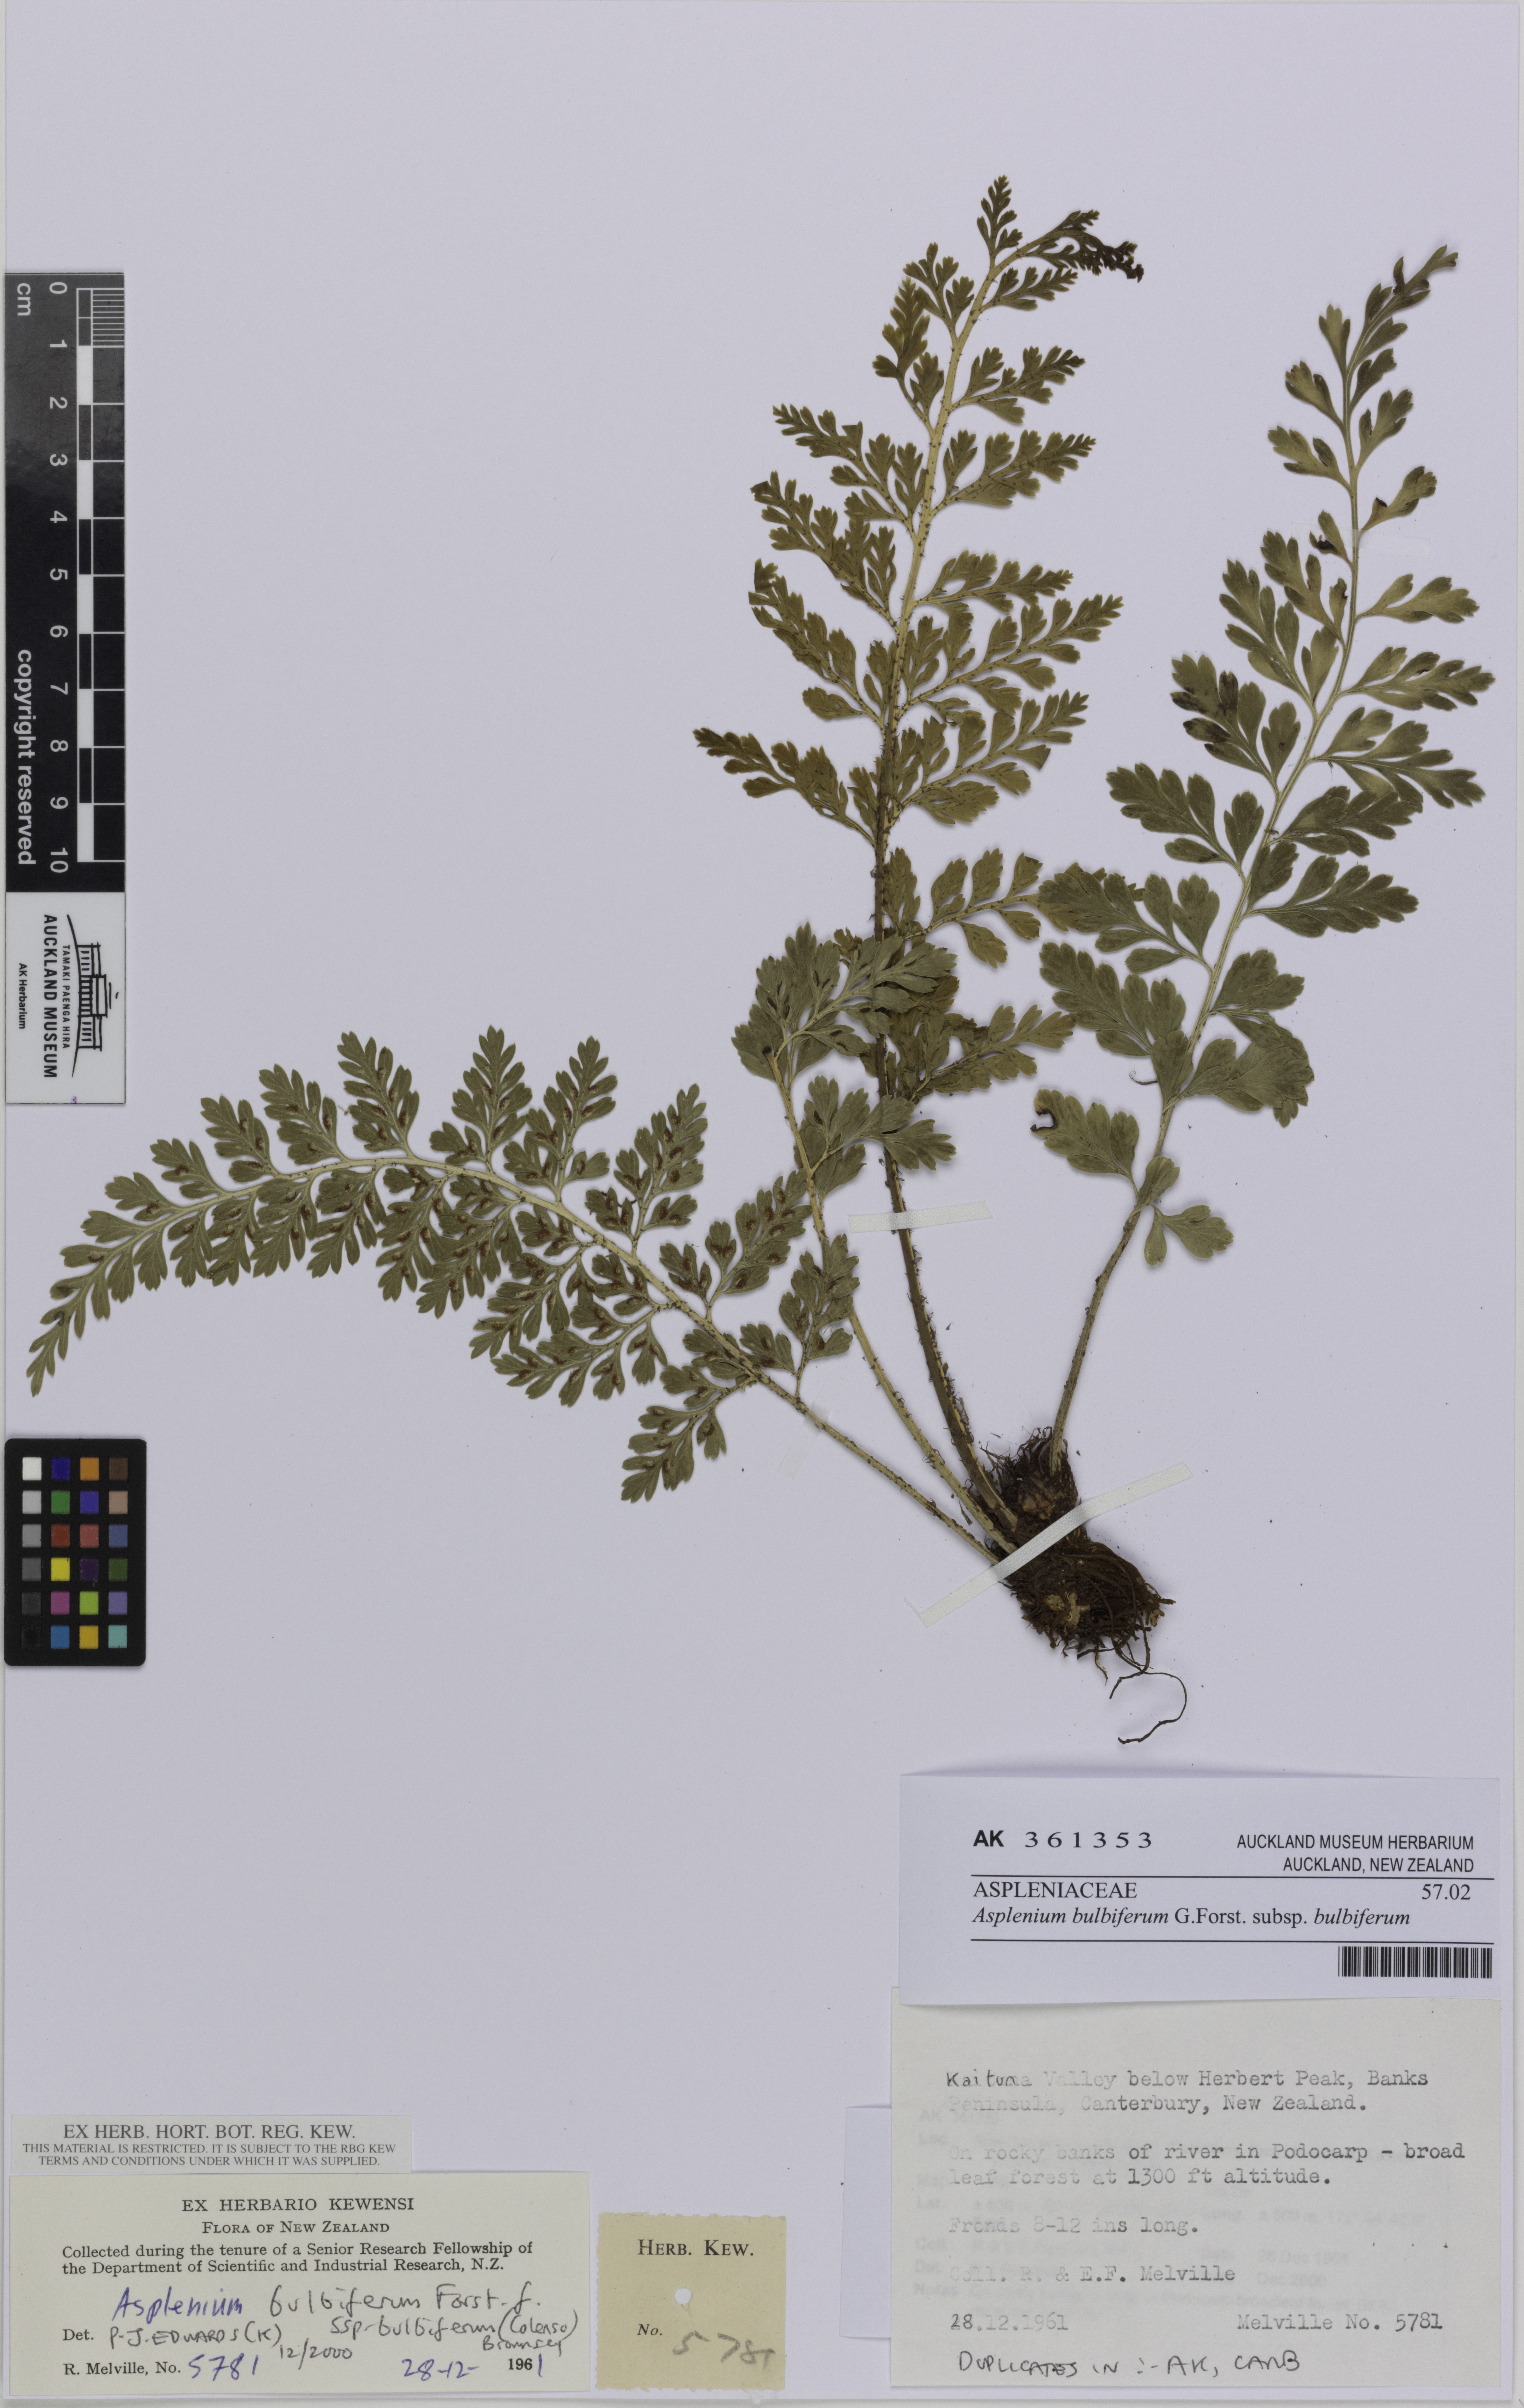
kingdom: Plantae
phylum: Tracheophyta
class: Polypodiopsida
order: Polypodiales
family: Aspleniaceae
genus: Asplenium
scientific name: Asplenium bulbiferum
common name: Mother fern
